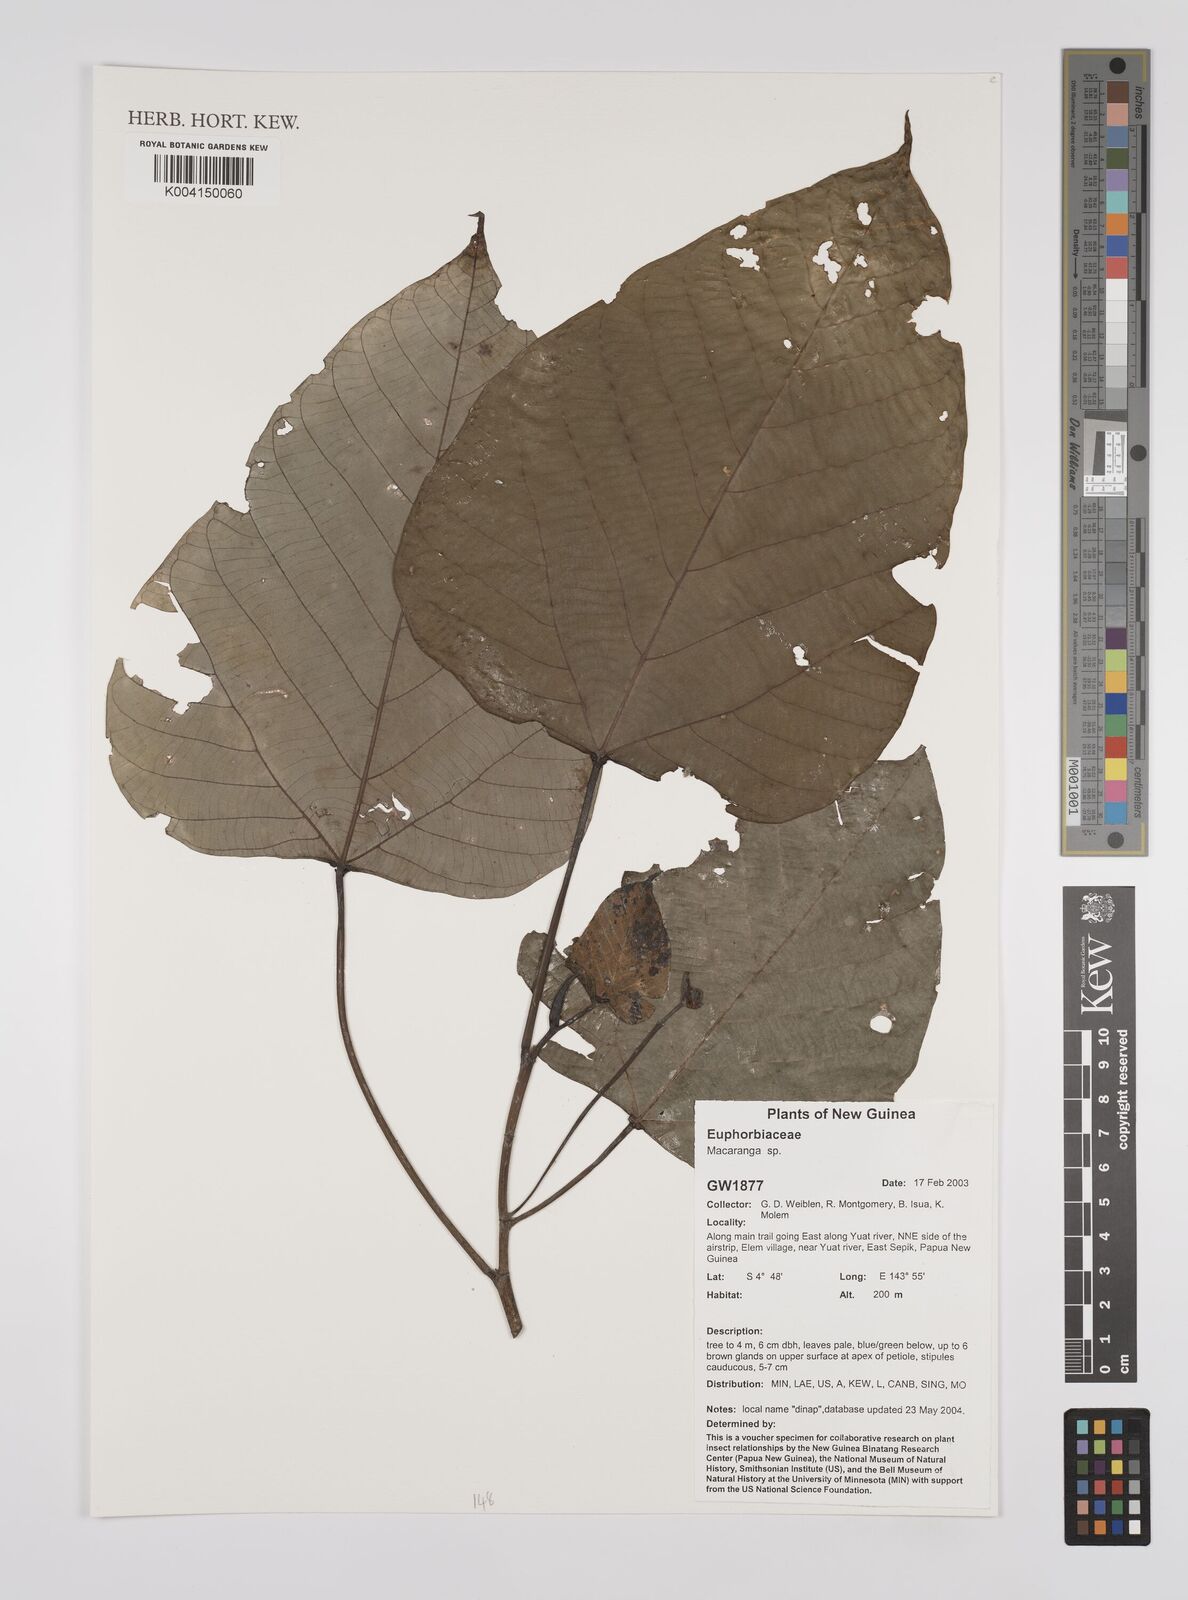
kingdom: Plantae
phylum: Tracheophyta
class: Magnoliopsida
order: Malpighiales
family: Euphorbiaceae
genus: Macaranga
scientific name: Macaranga
